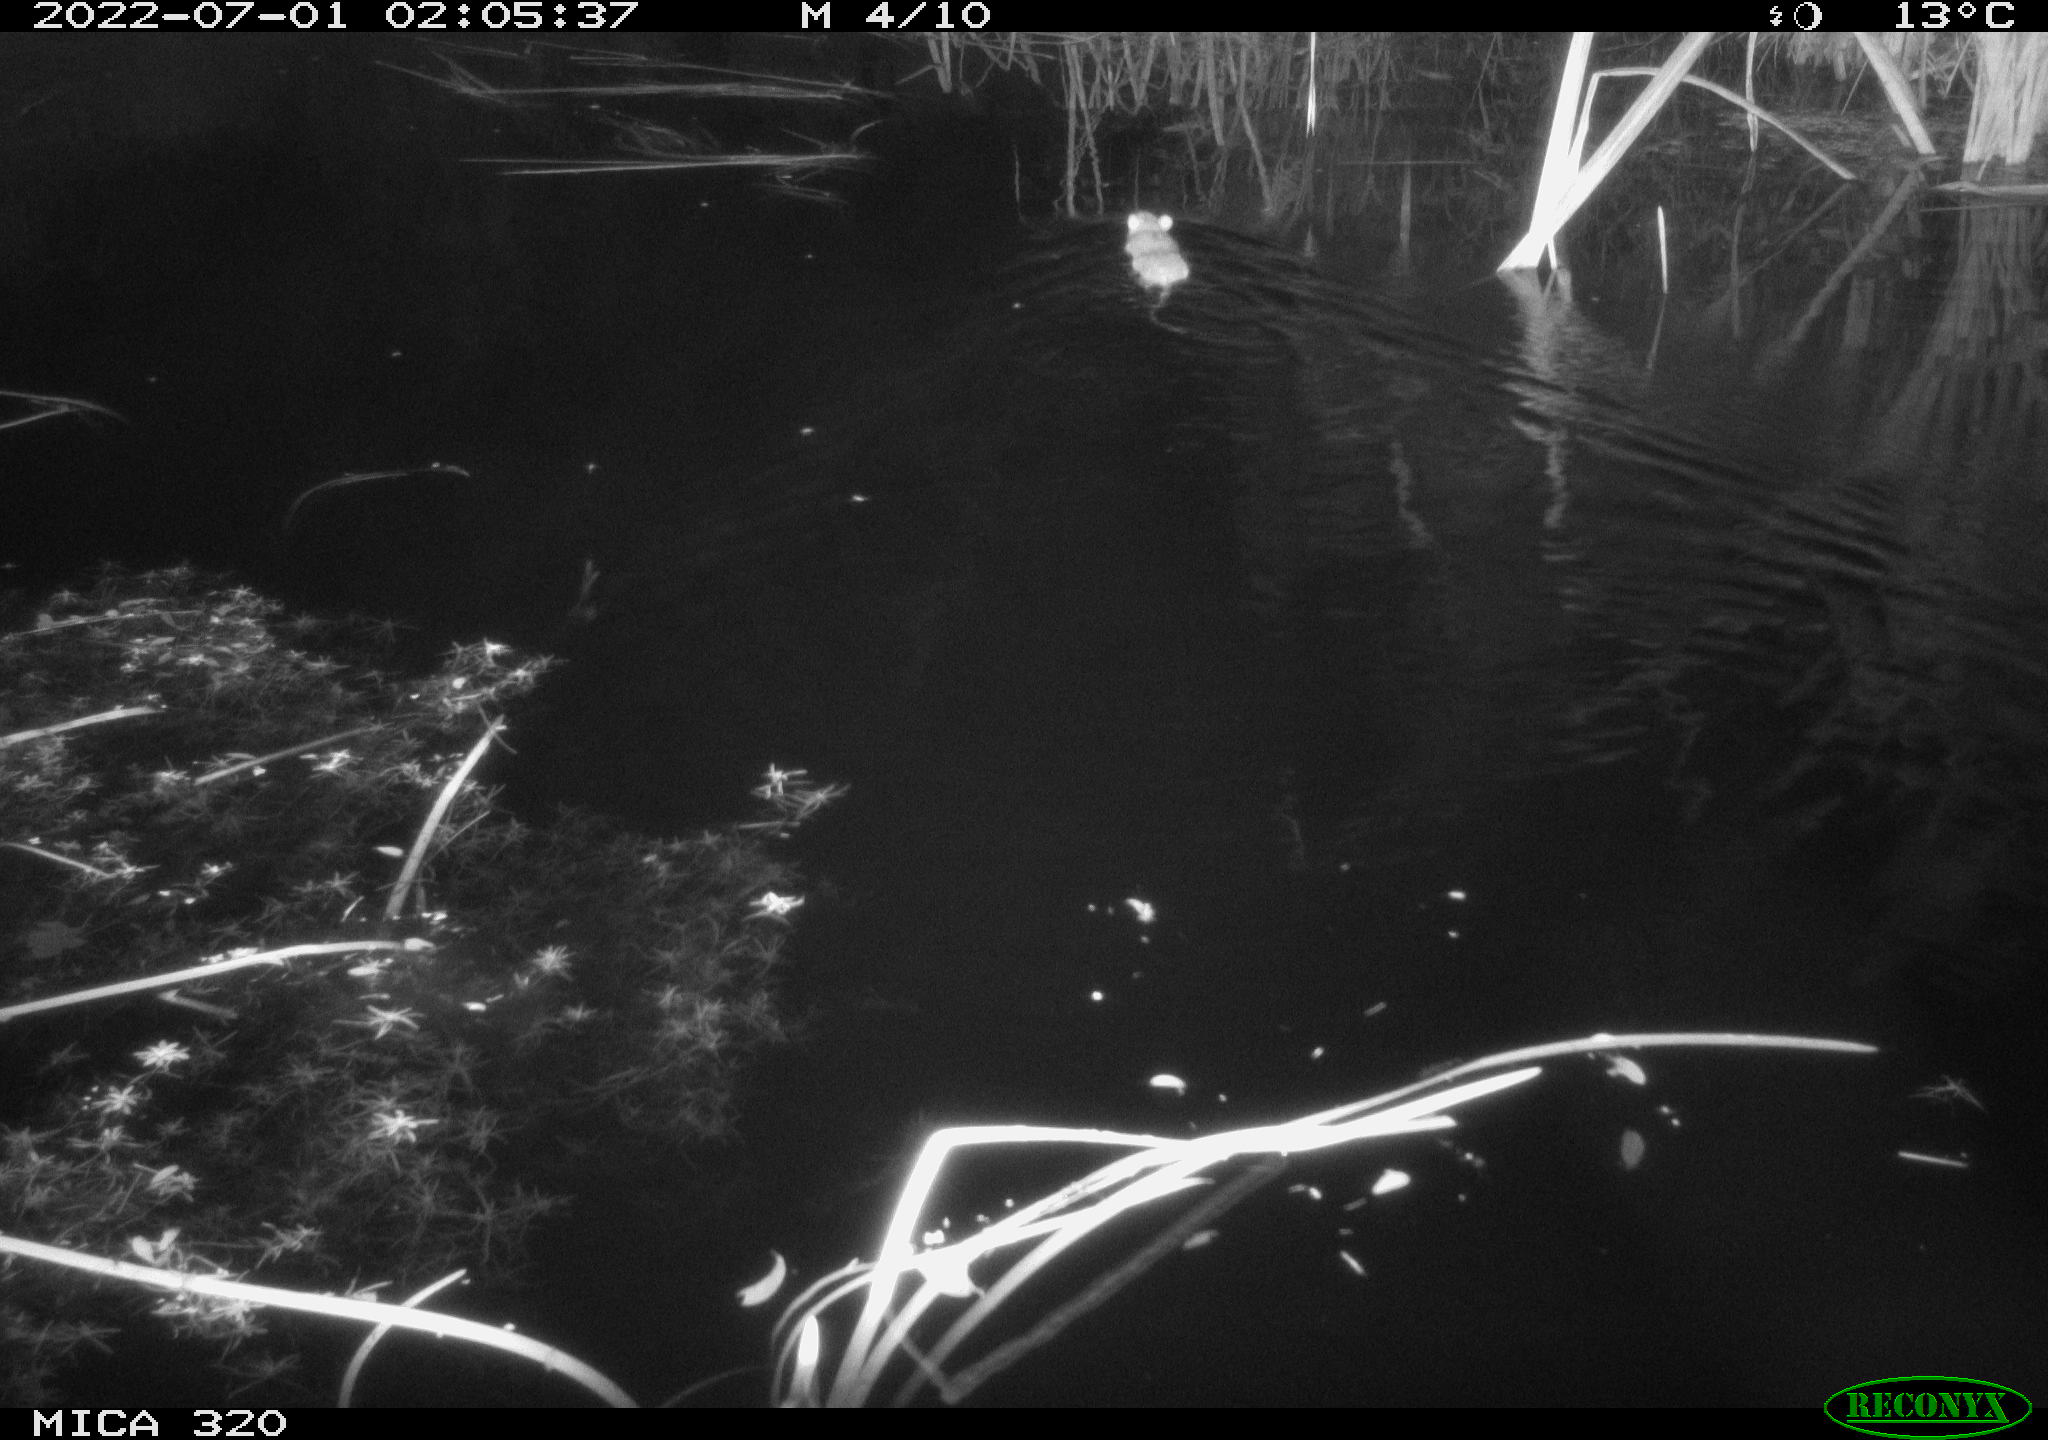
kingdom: Animalia
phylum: Chordata
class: Mammalia
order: Rodentia
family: Cricetidae
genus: Ondatra
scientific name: Ondatra zibethicus
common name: Muskrat
